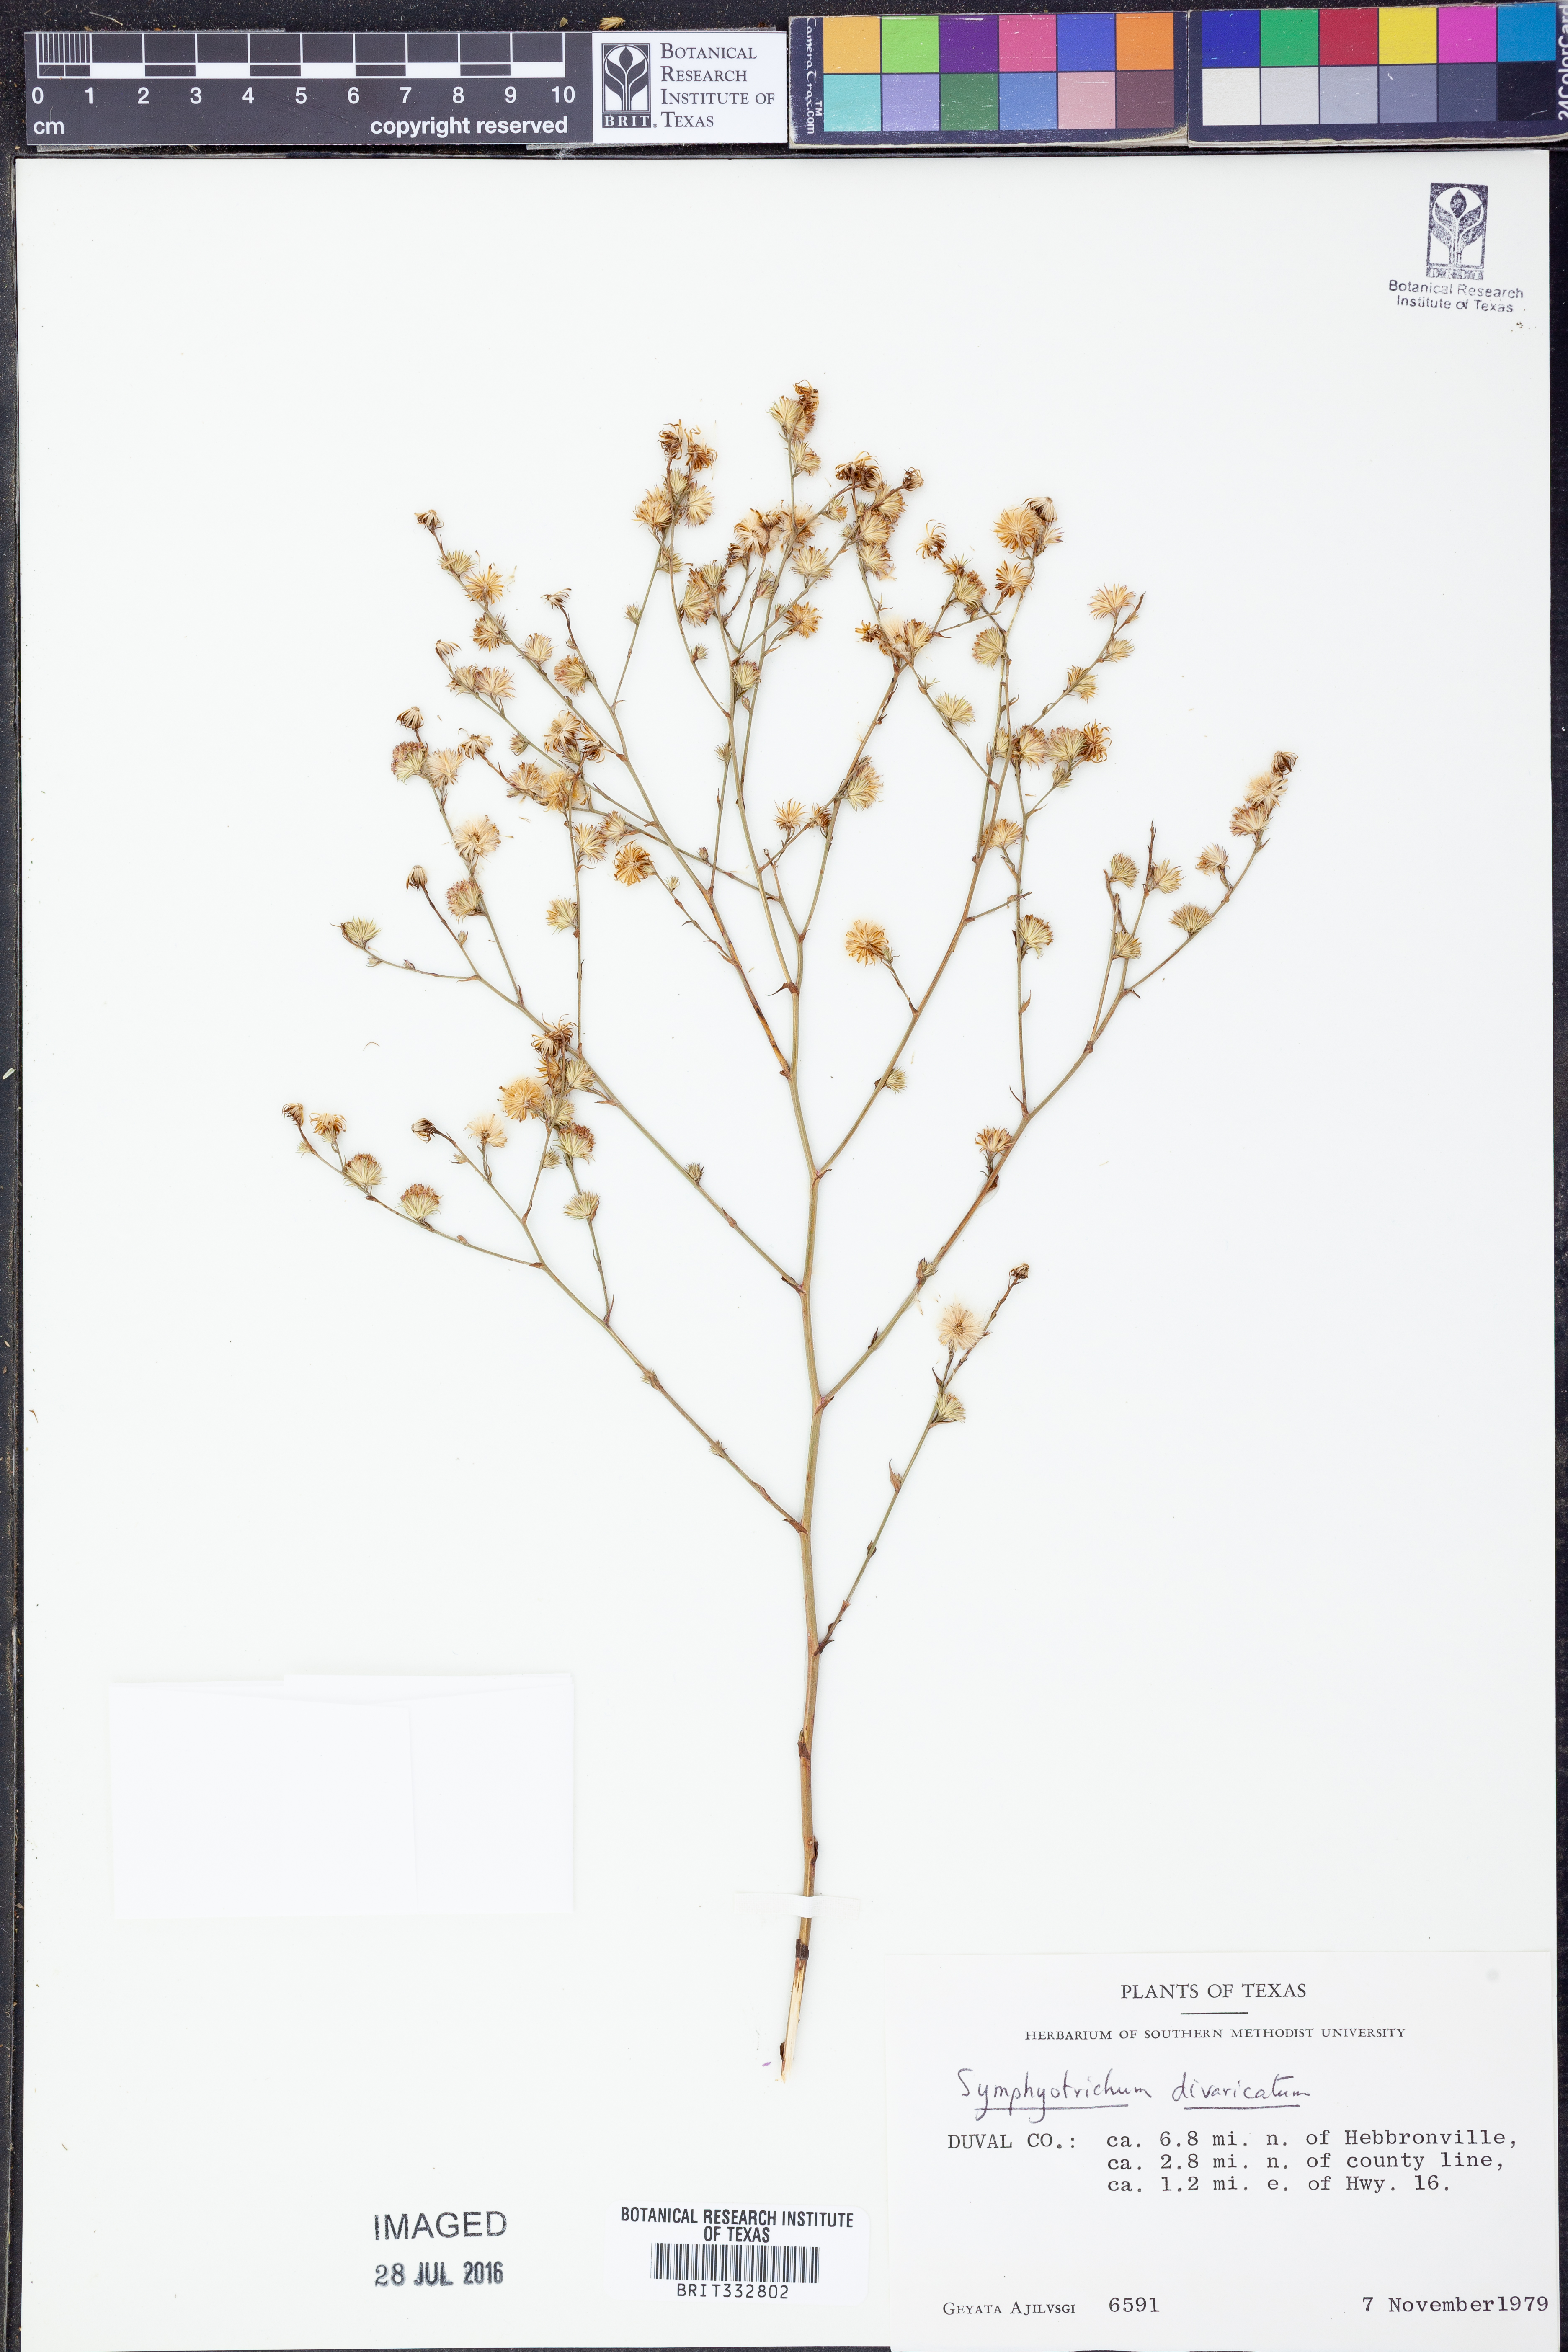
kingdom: Plantae
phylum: Tracheophyta
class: Magnoliopsida
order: Asterales
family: Asteraceae
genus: Symphyotrichum
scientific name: Symphyotrichum divaricatum
